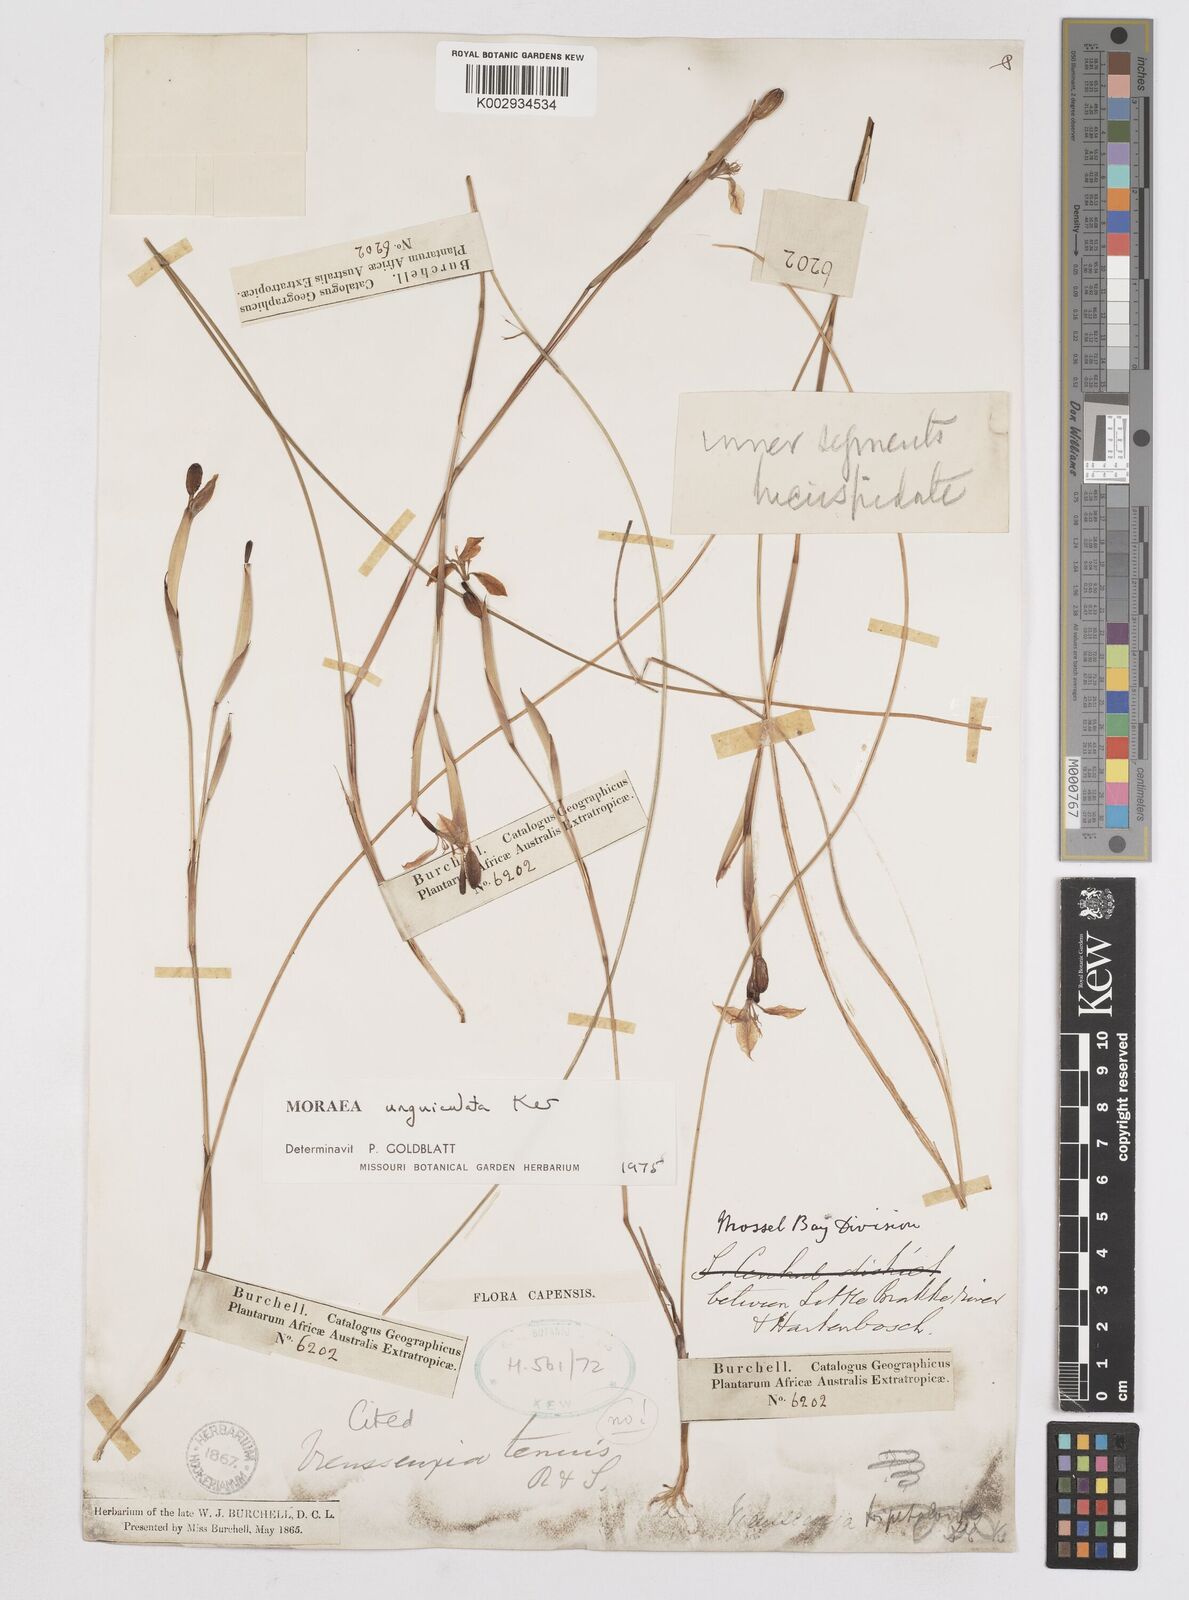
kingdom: Plantae
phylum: Tracheophyta
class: Liliopsida
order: Asparagales
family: Iridaceae
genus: Moraea
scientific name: Moraea unguiculata
